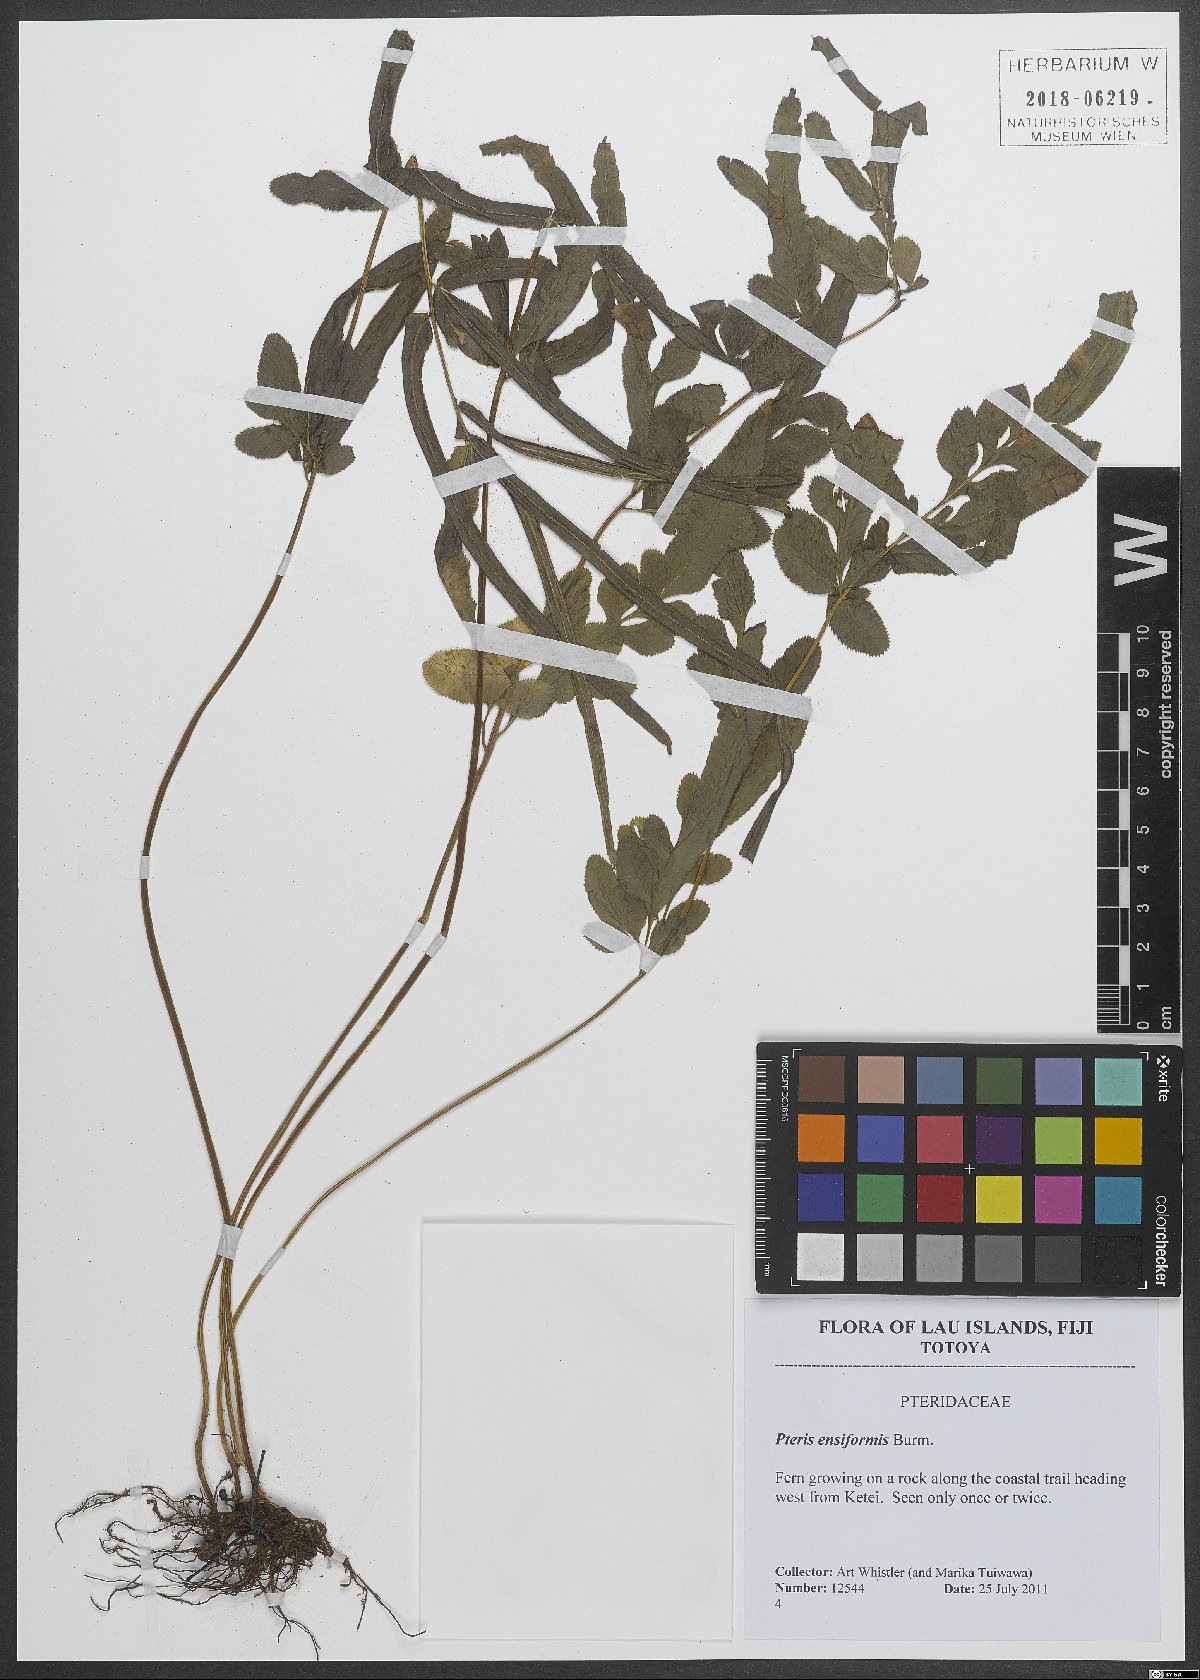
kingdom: Plantae
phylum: Tracheophyta
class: Polypodiopsida
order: Polypodiales
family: Pteridaceae
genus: Pteris
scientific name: Pteris ensiformis
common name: Sword brake
